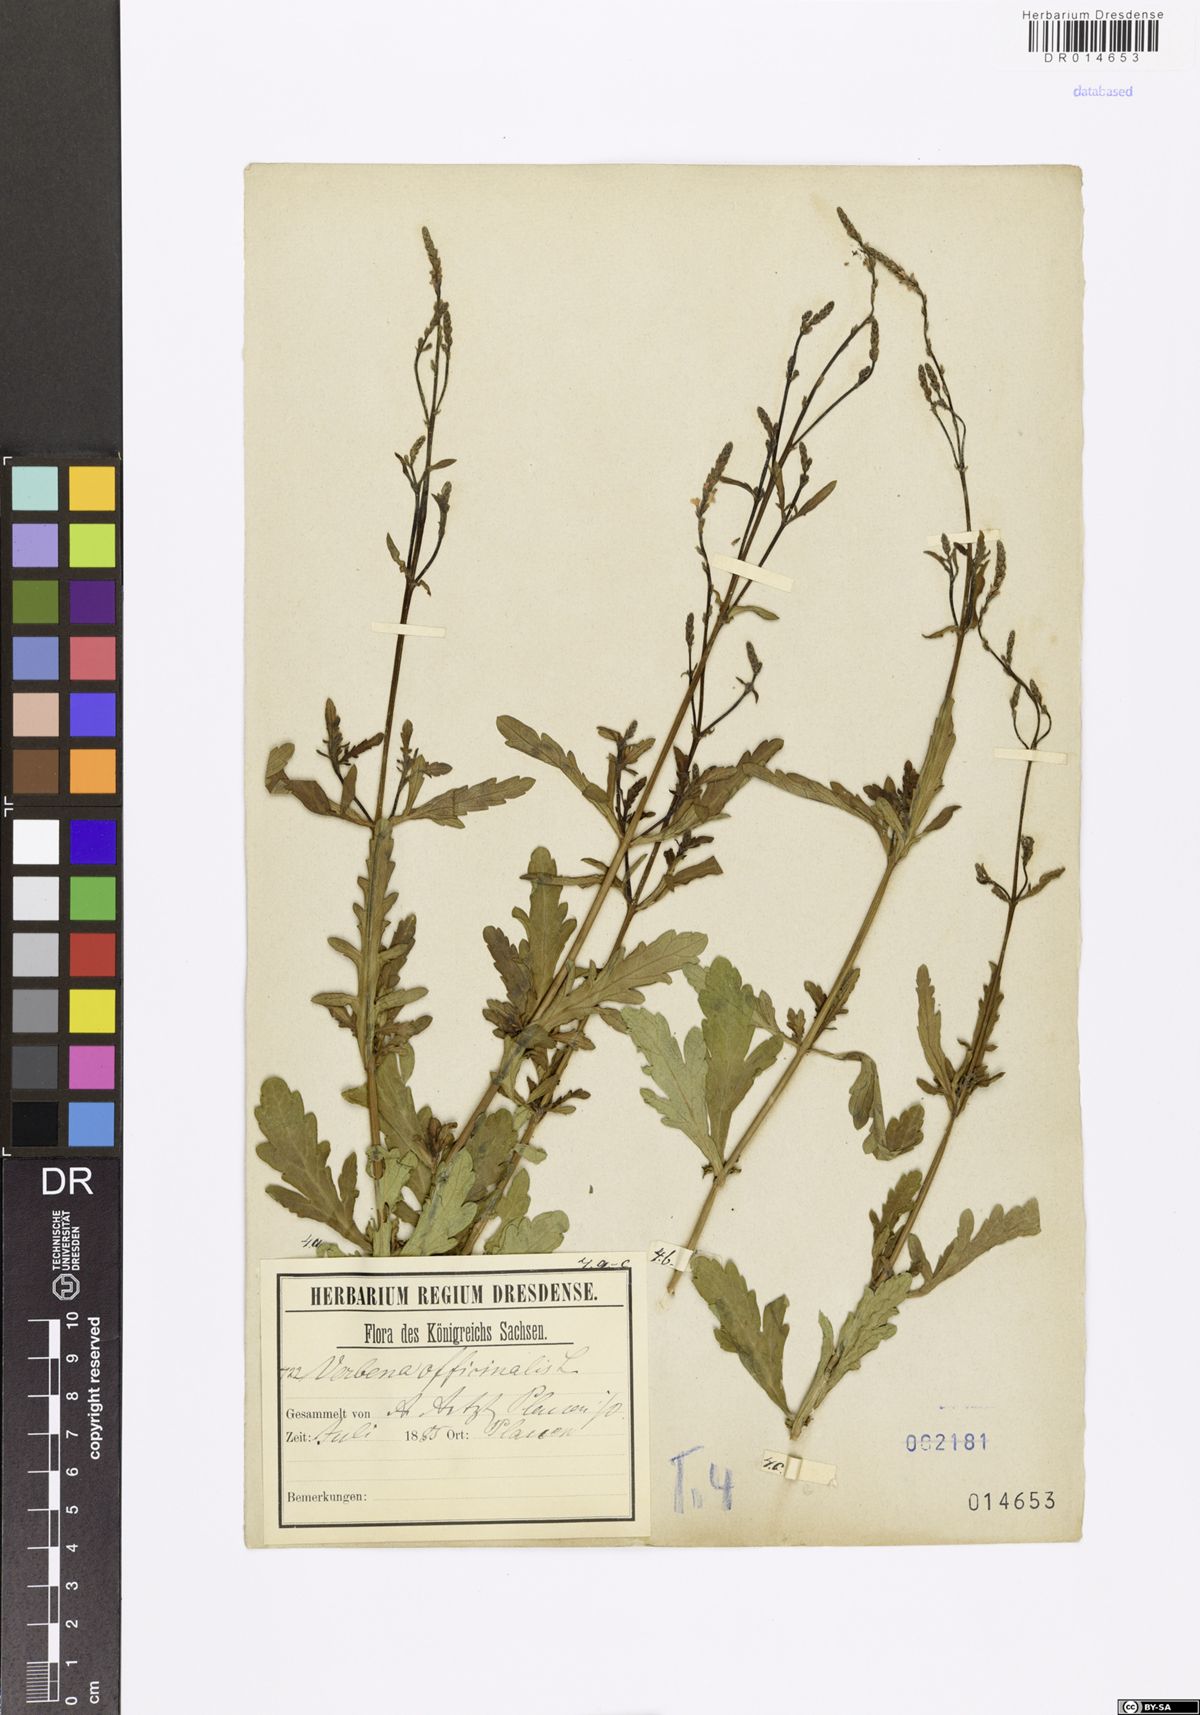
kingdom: Plantae
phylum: Tracheophyta
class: Magnoliopsida
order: Lamiales
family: Verbenaceae
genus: Verbena
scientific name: Verbena officinalis
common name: Vervain
